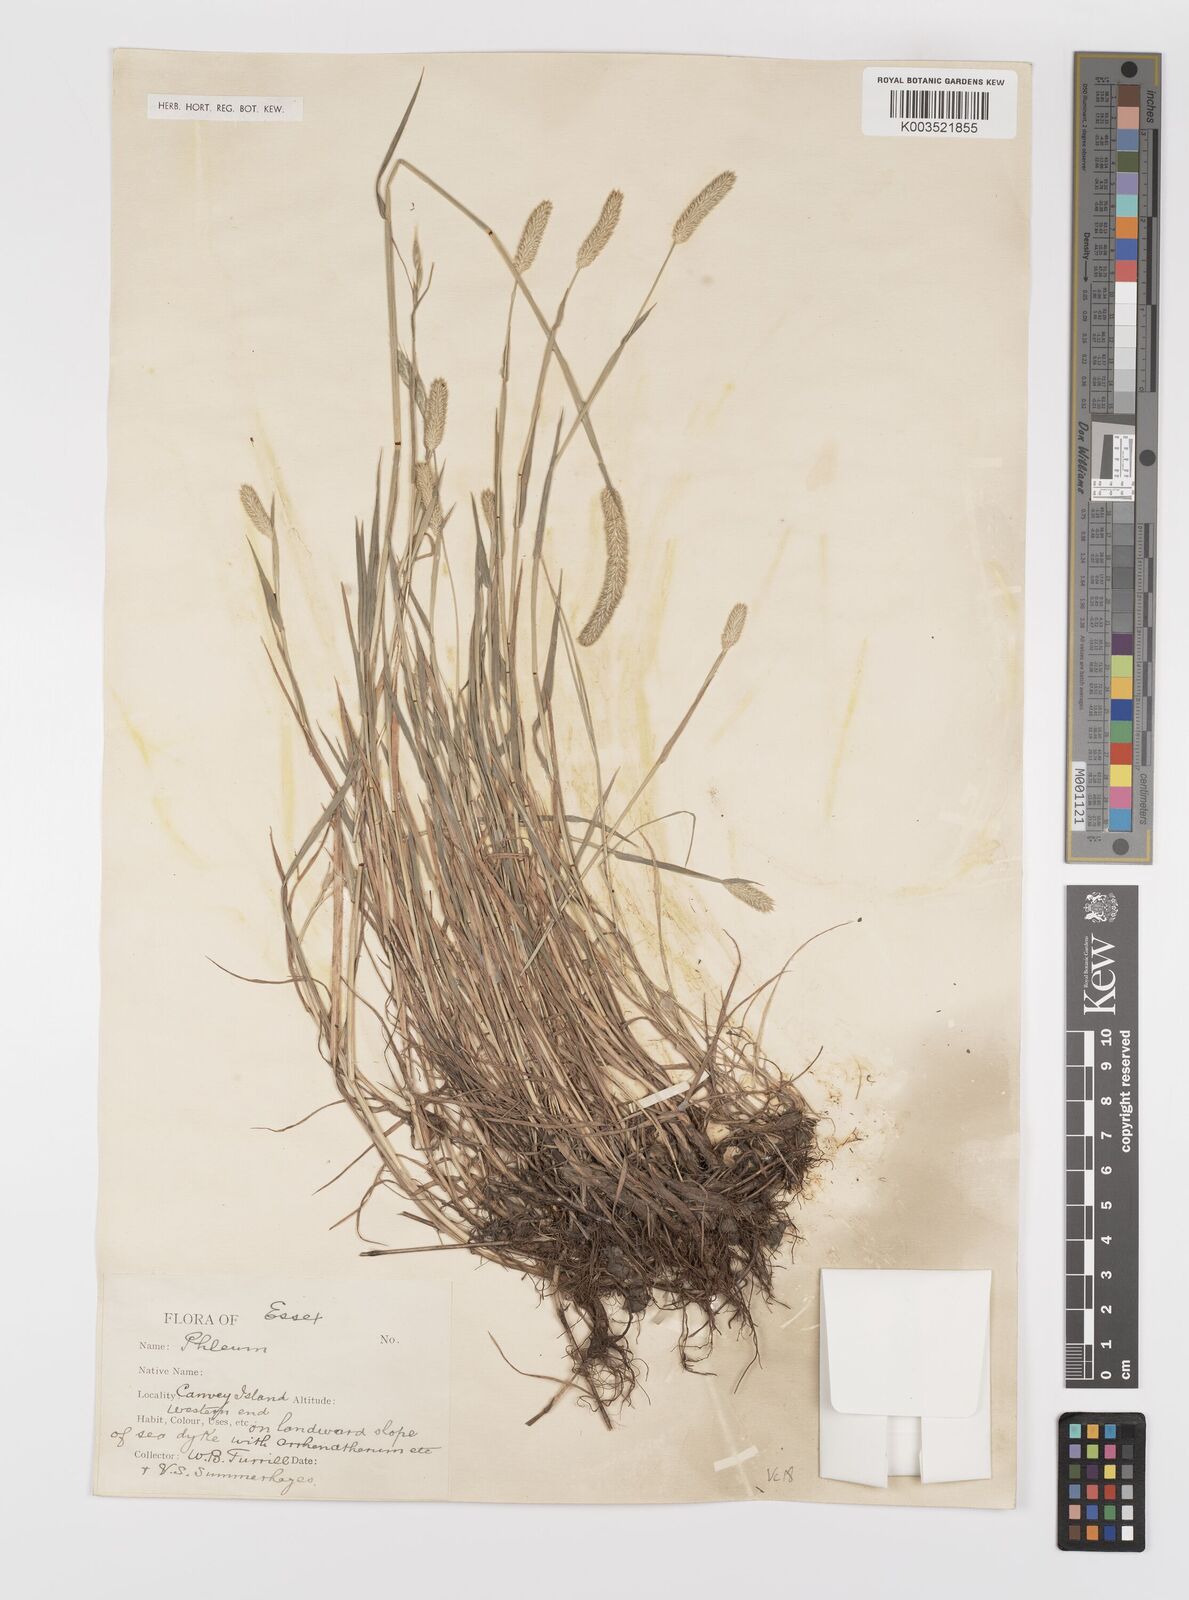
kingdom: Plantae
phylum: Tracheophyta
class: Liliopsida
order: Poales
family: Poaceae
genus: Phleum
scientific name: Phleum bertolonii
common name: Smaller cat's-tail
